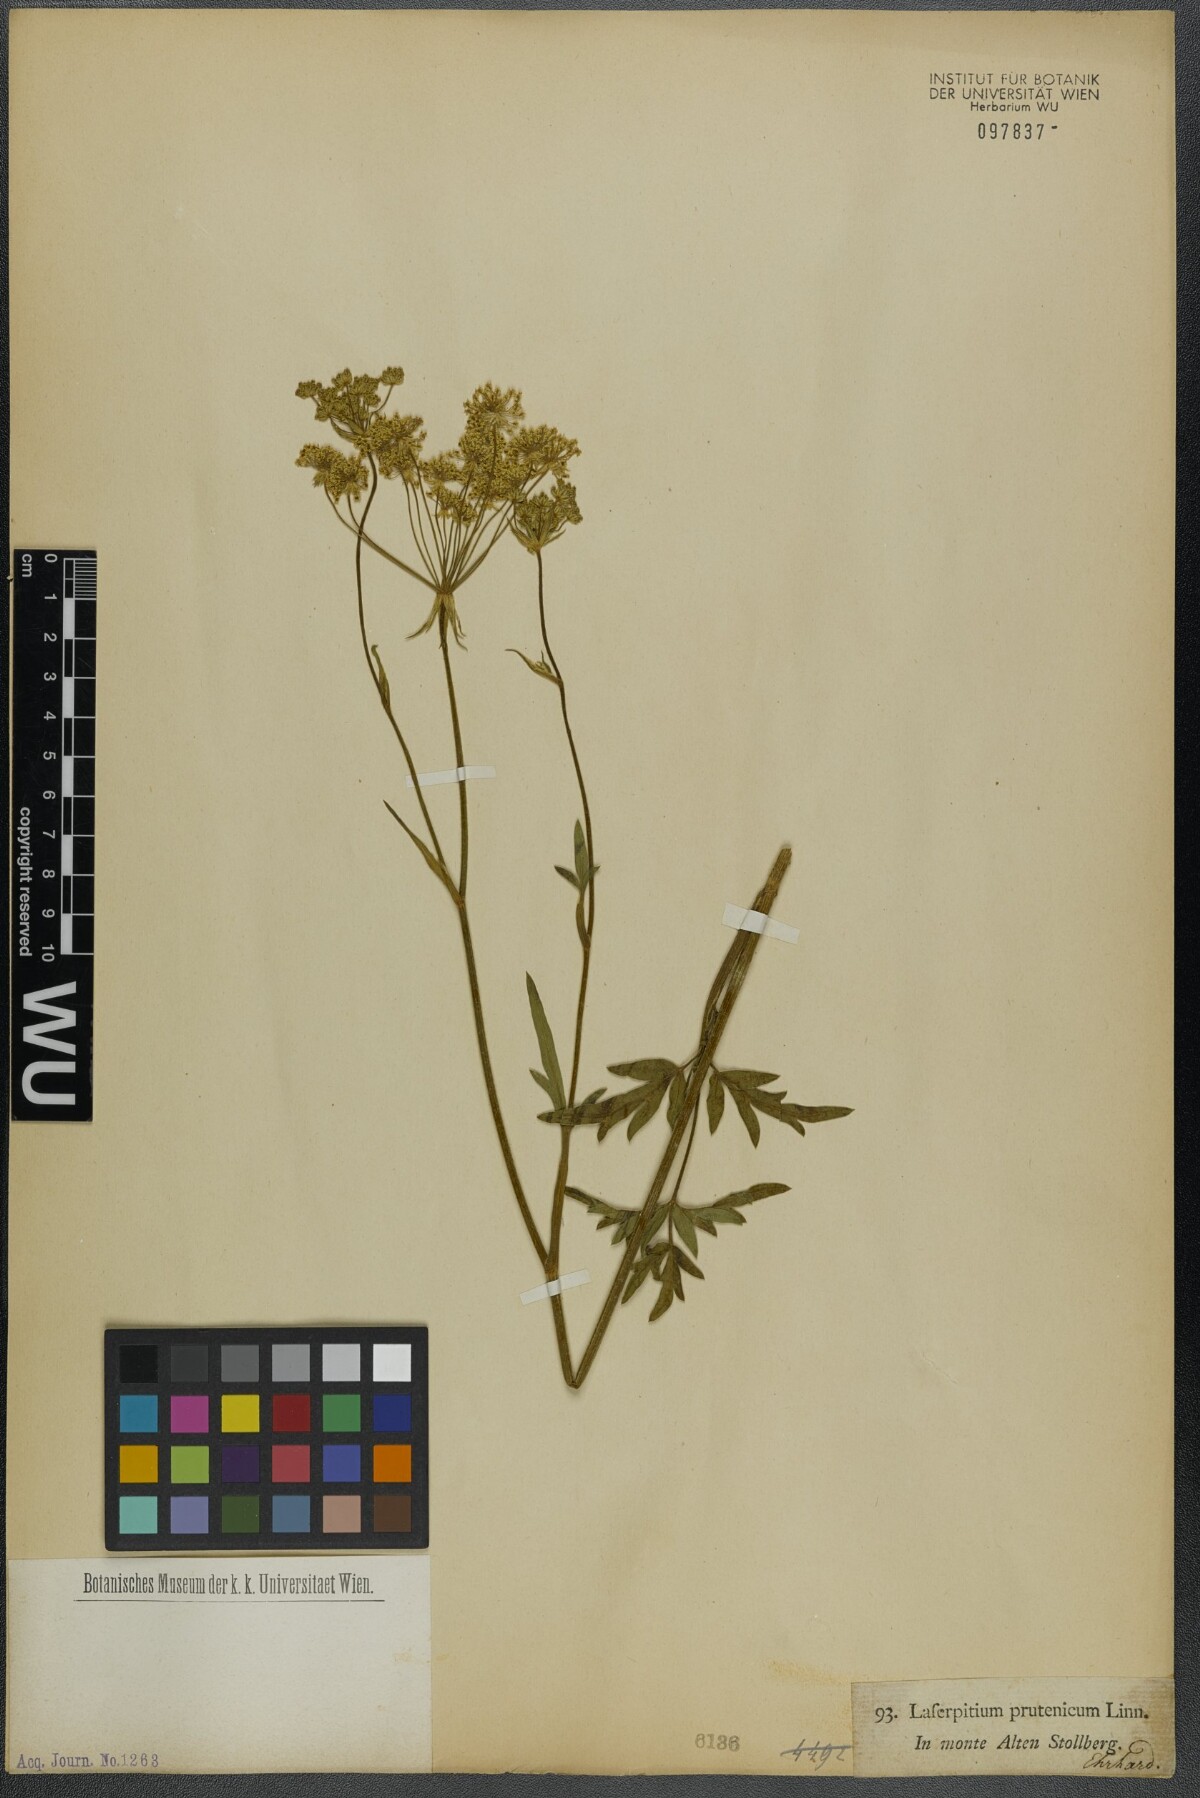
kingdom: Plantae
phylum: Tracheophyta
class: Magnoliopsida
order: Apiales
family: Apiaceae
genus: Silphiodaucus
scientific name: Silphiodaucus prutenicus
